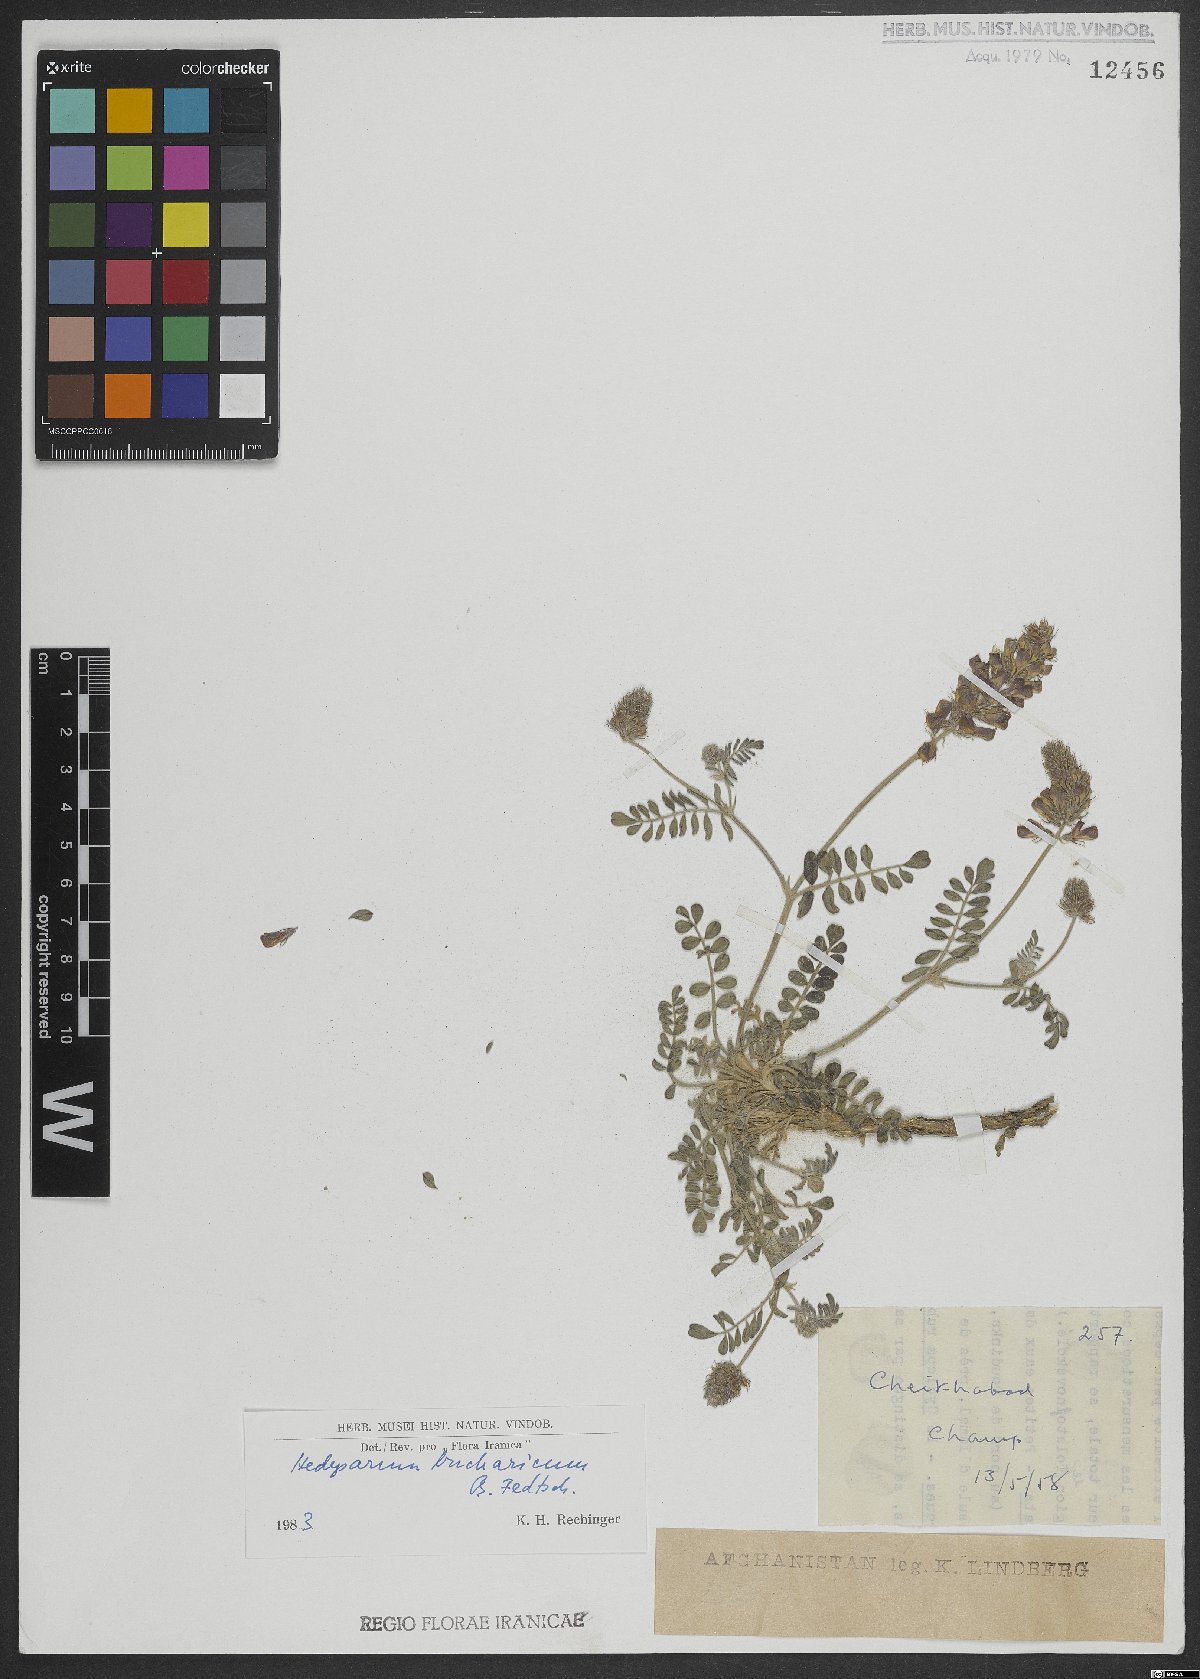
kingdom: Plantae
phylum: Tracheophyta
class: Magnoliopsida
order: Fabales
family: Fabaceae
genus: Hedysarum
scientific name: Hedysarum bucharicum
